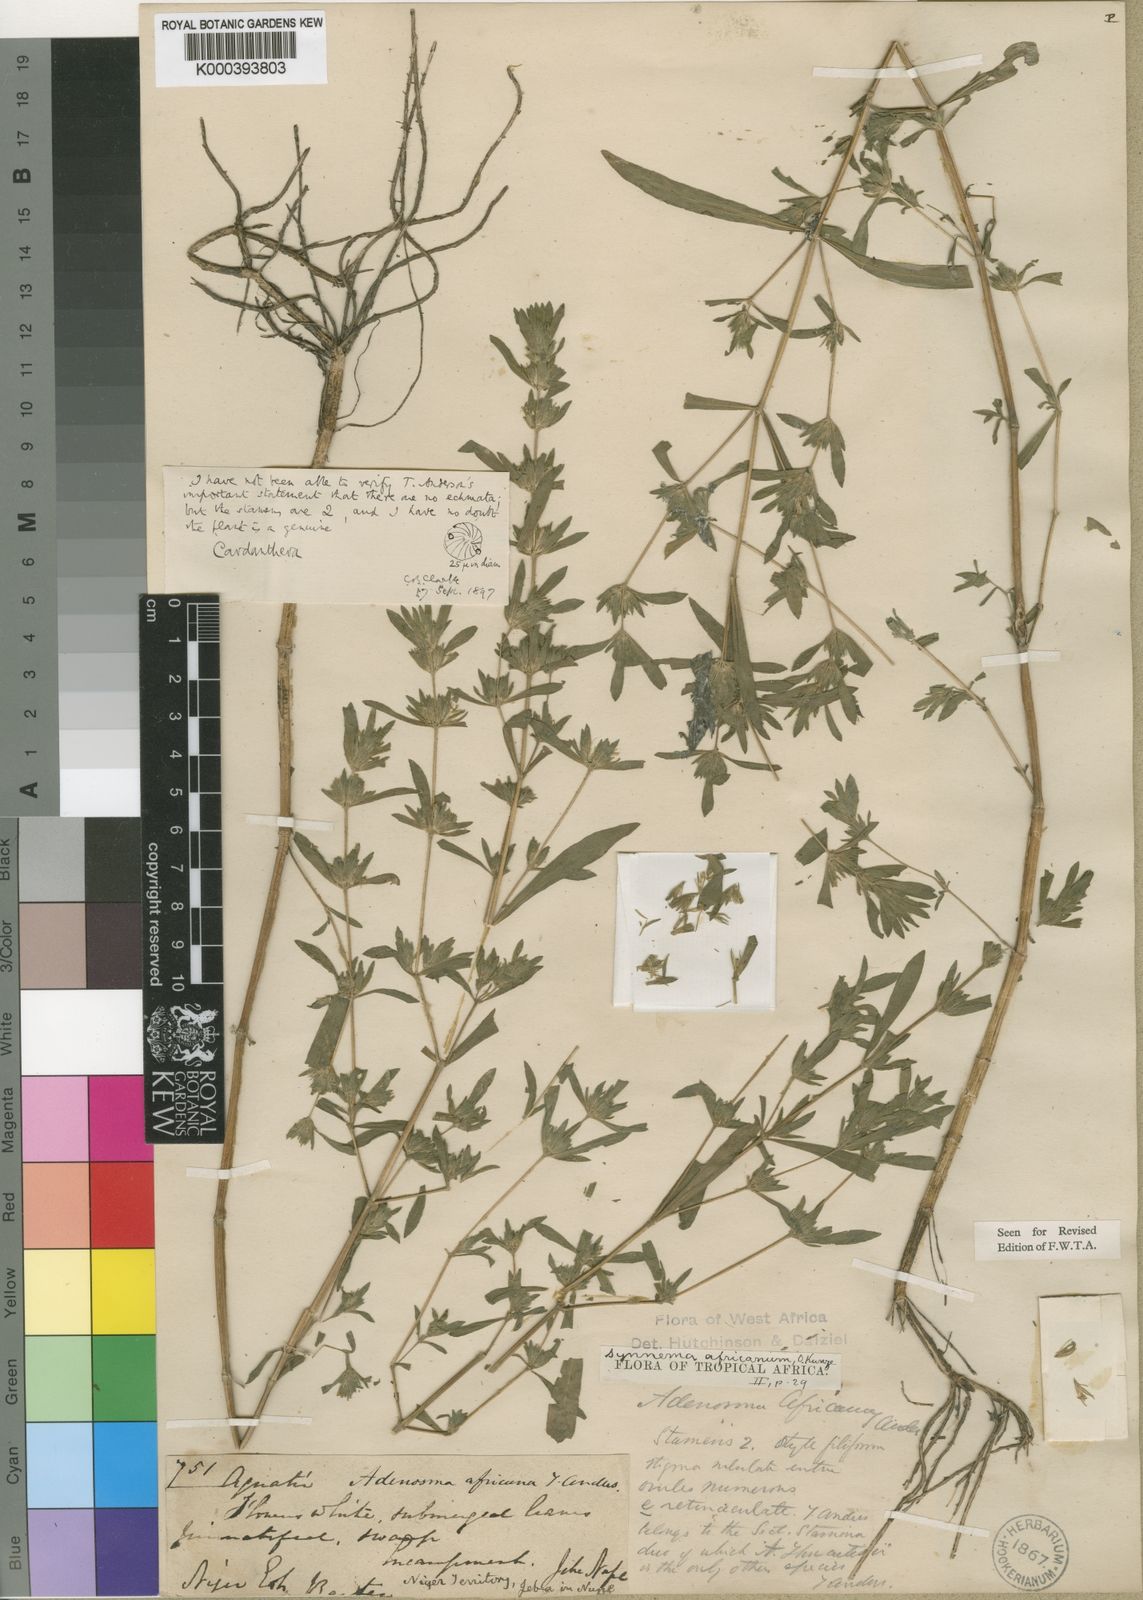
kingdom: Plantae
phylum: Tracheophyta
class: Magnoliopsida
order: Lamiales
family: Acanthaceae
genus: Hygrophila
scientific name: Hygrophila africana
